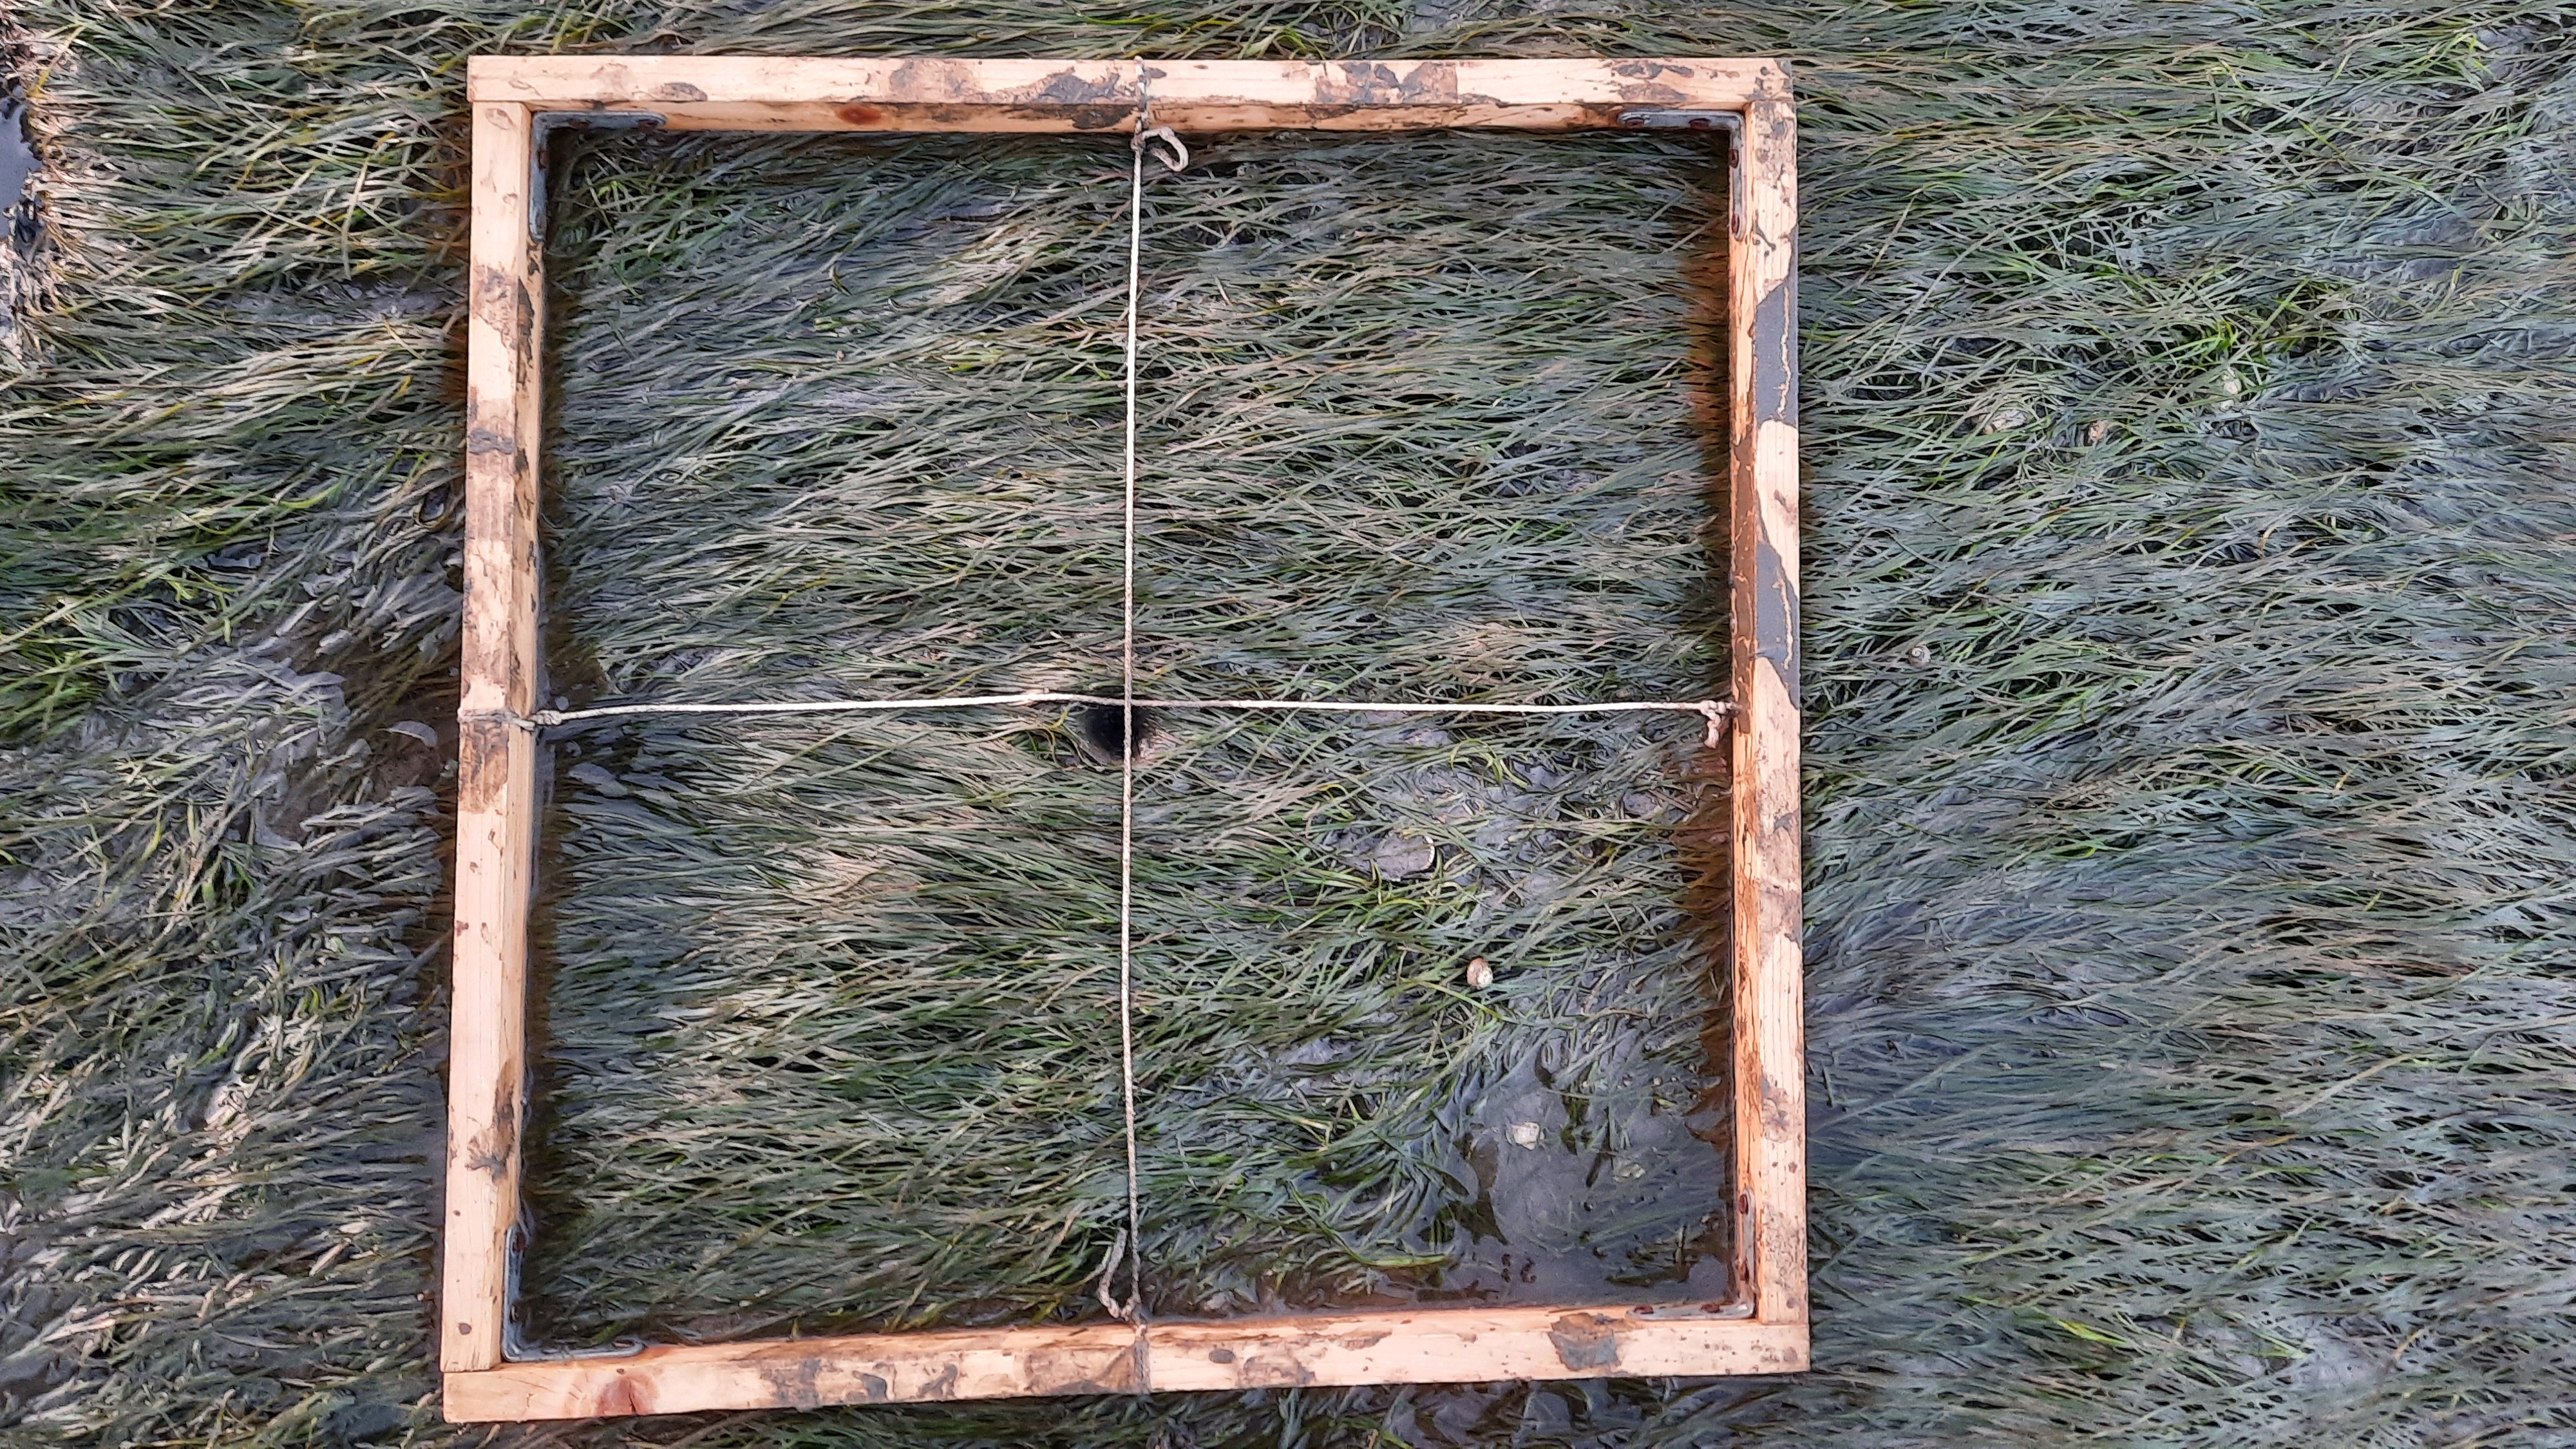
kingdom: Plantae
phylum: Tracheophyta
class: Liliopsida
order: Alismatales
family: Zosteraceae
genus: Zostera
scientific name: Zostera noltii
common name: Dwarf eelgrass
